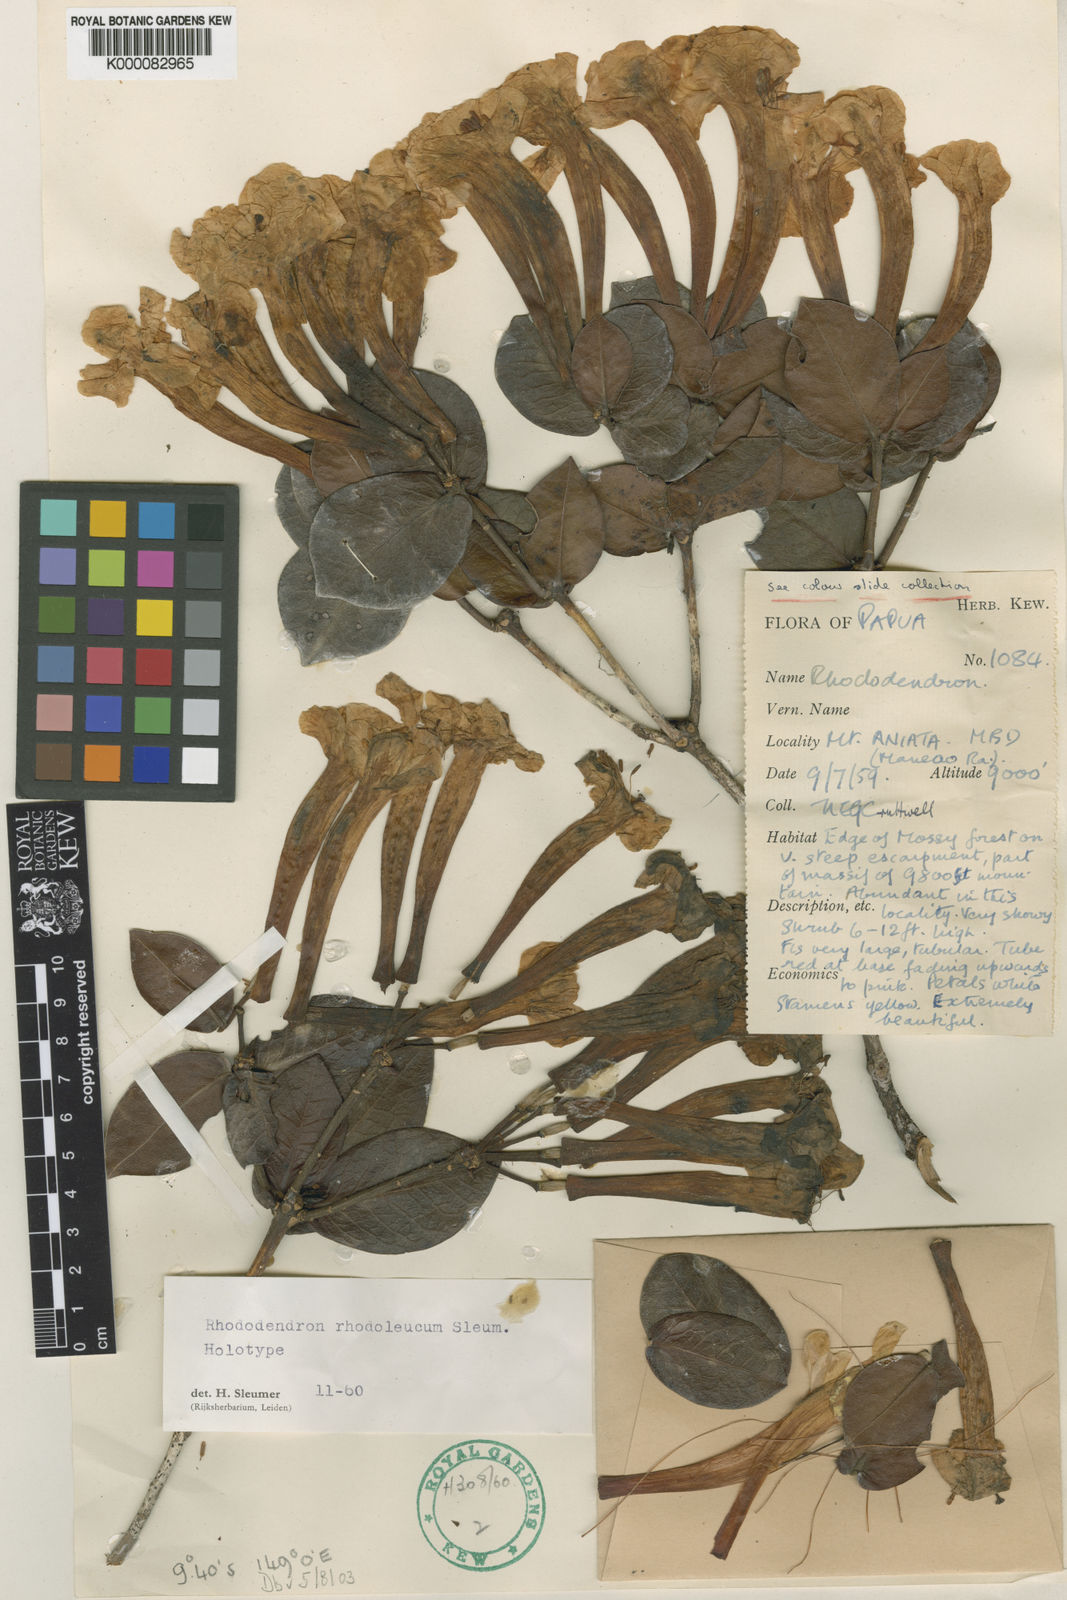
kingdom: Plantae
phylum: Tracheophyta
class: Magnoliopsida
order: Ericales
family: Ericaceae
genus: Rhododendron
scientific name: Rhododendron rhodoleucum
